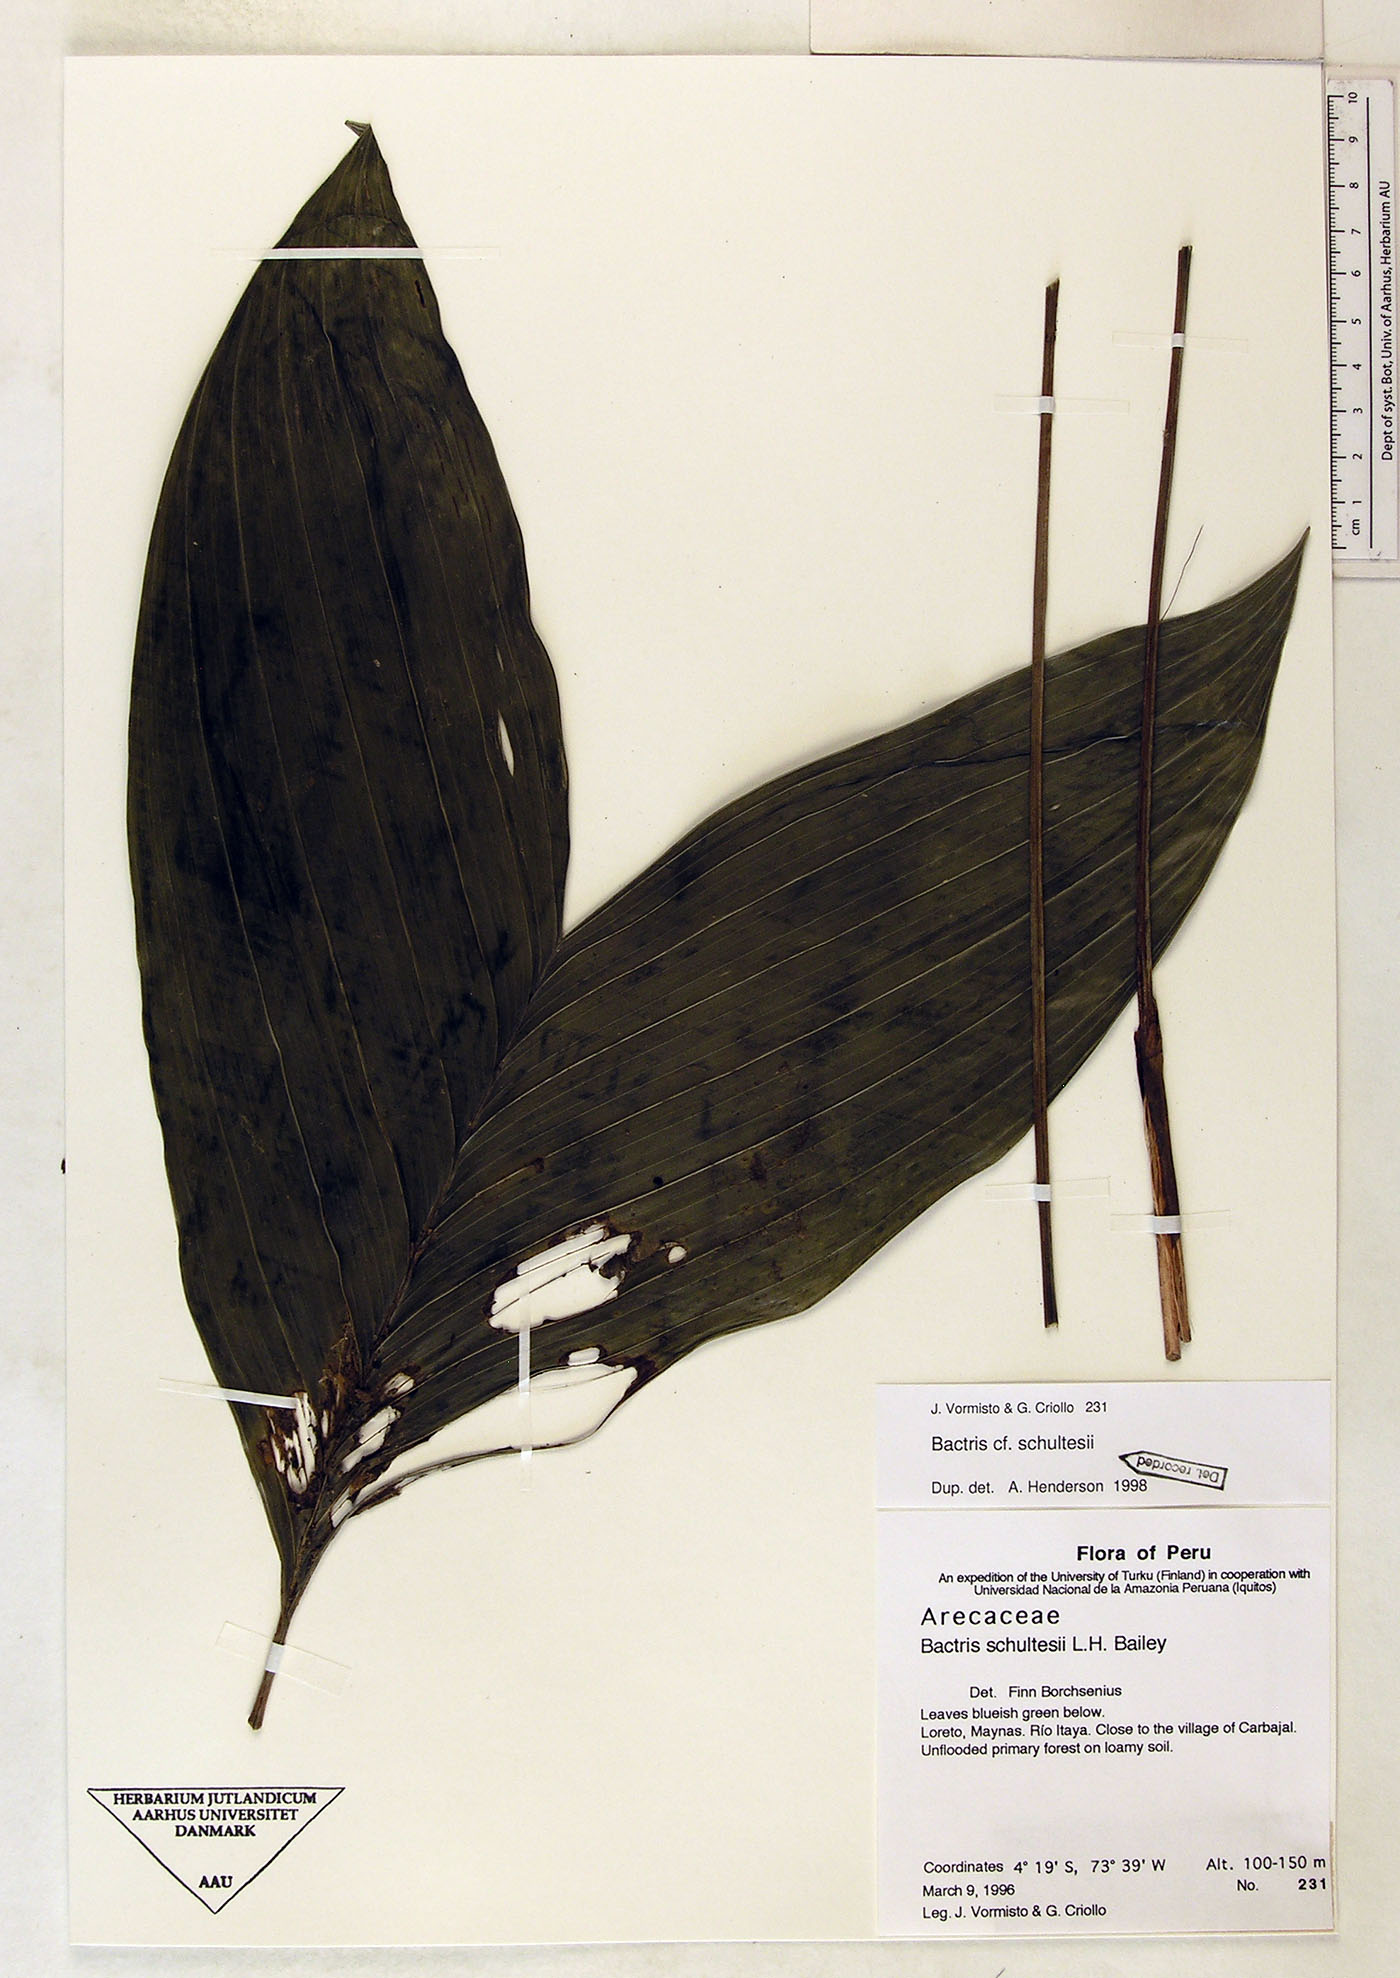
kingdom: Plantae
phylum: Tracheophyta
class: Liliopsida
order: Arecales
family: Arecaceae
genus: Bactris
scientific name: Bactris schultesii
